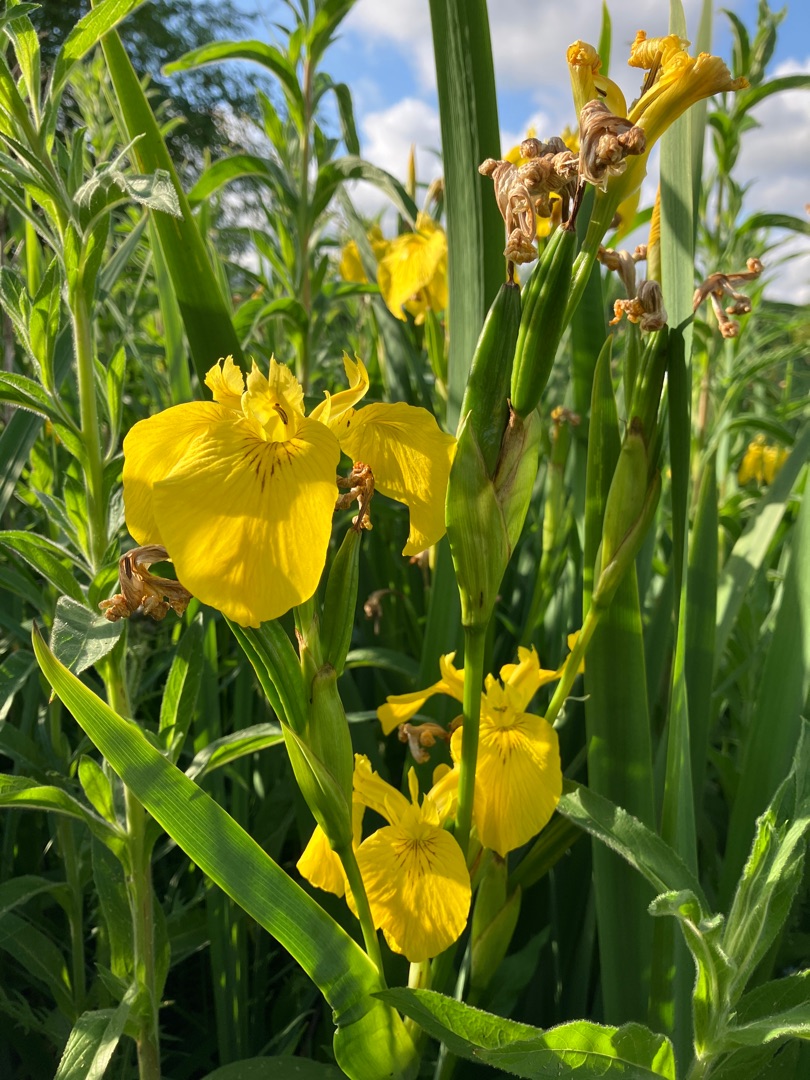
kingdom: Plantae
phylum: Tracheophyta
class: Liliopsida
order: Asparagales
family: Iridaceae
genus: Iris
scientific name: Iris pseudacorus
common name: Gul iris
